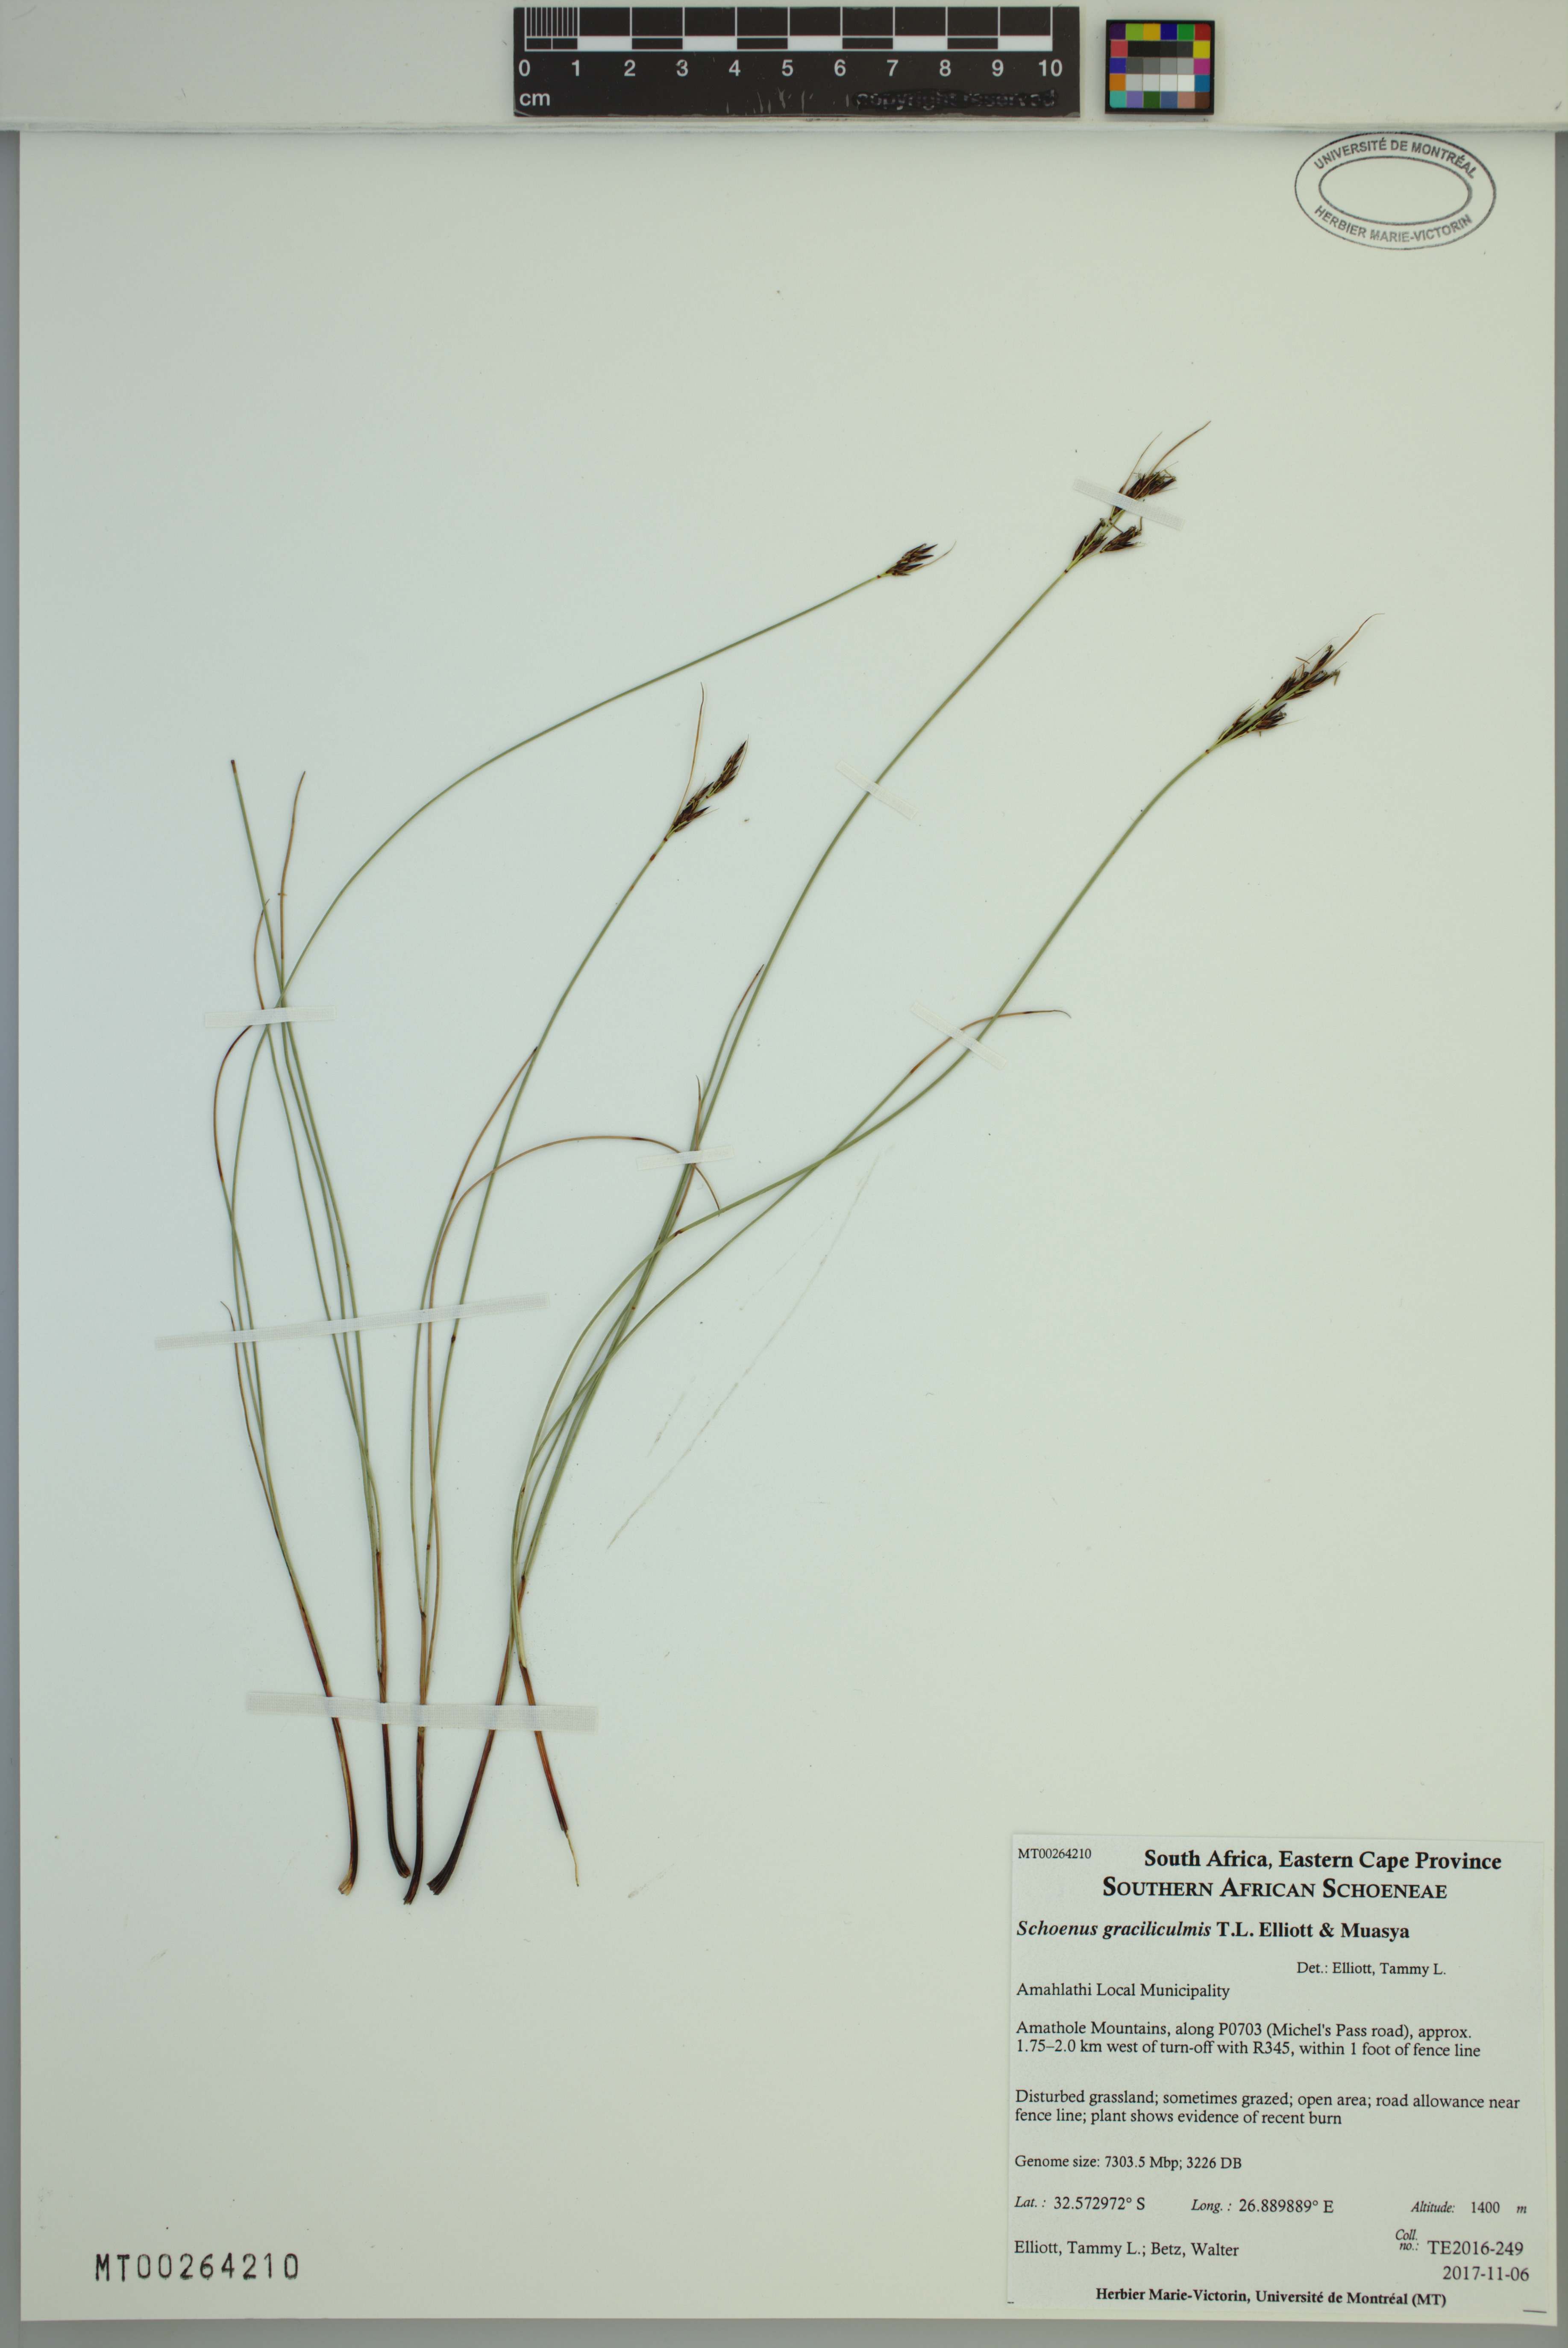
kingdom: Plantae
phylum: Tracheophyta
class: Liliopsida
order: Poales
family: Cyperaceae
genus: Schoenus
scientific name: Schoenus graciliculmis
